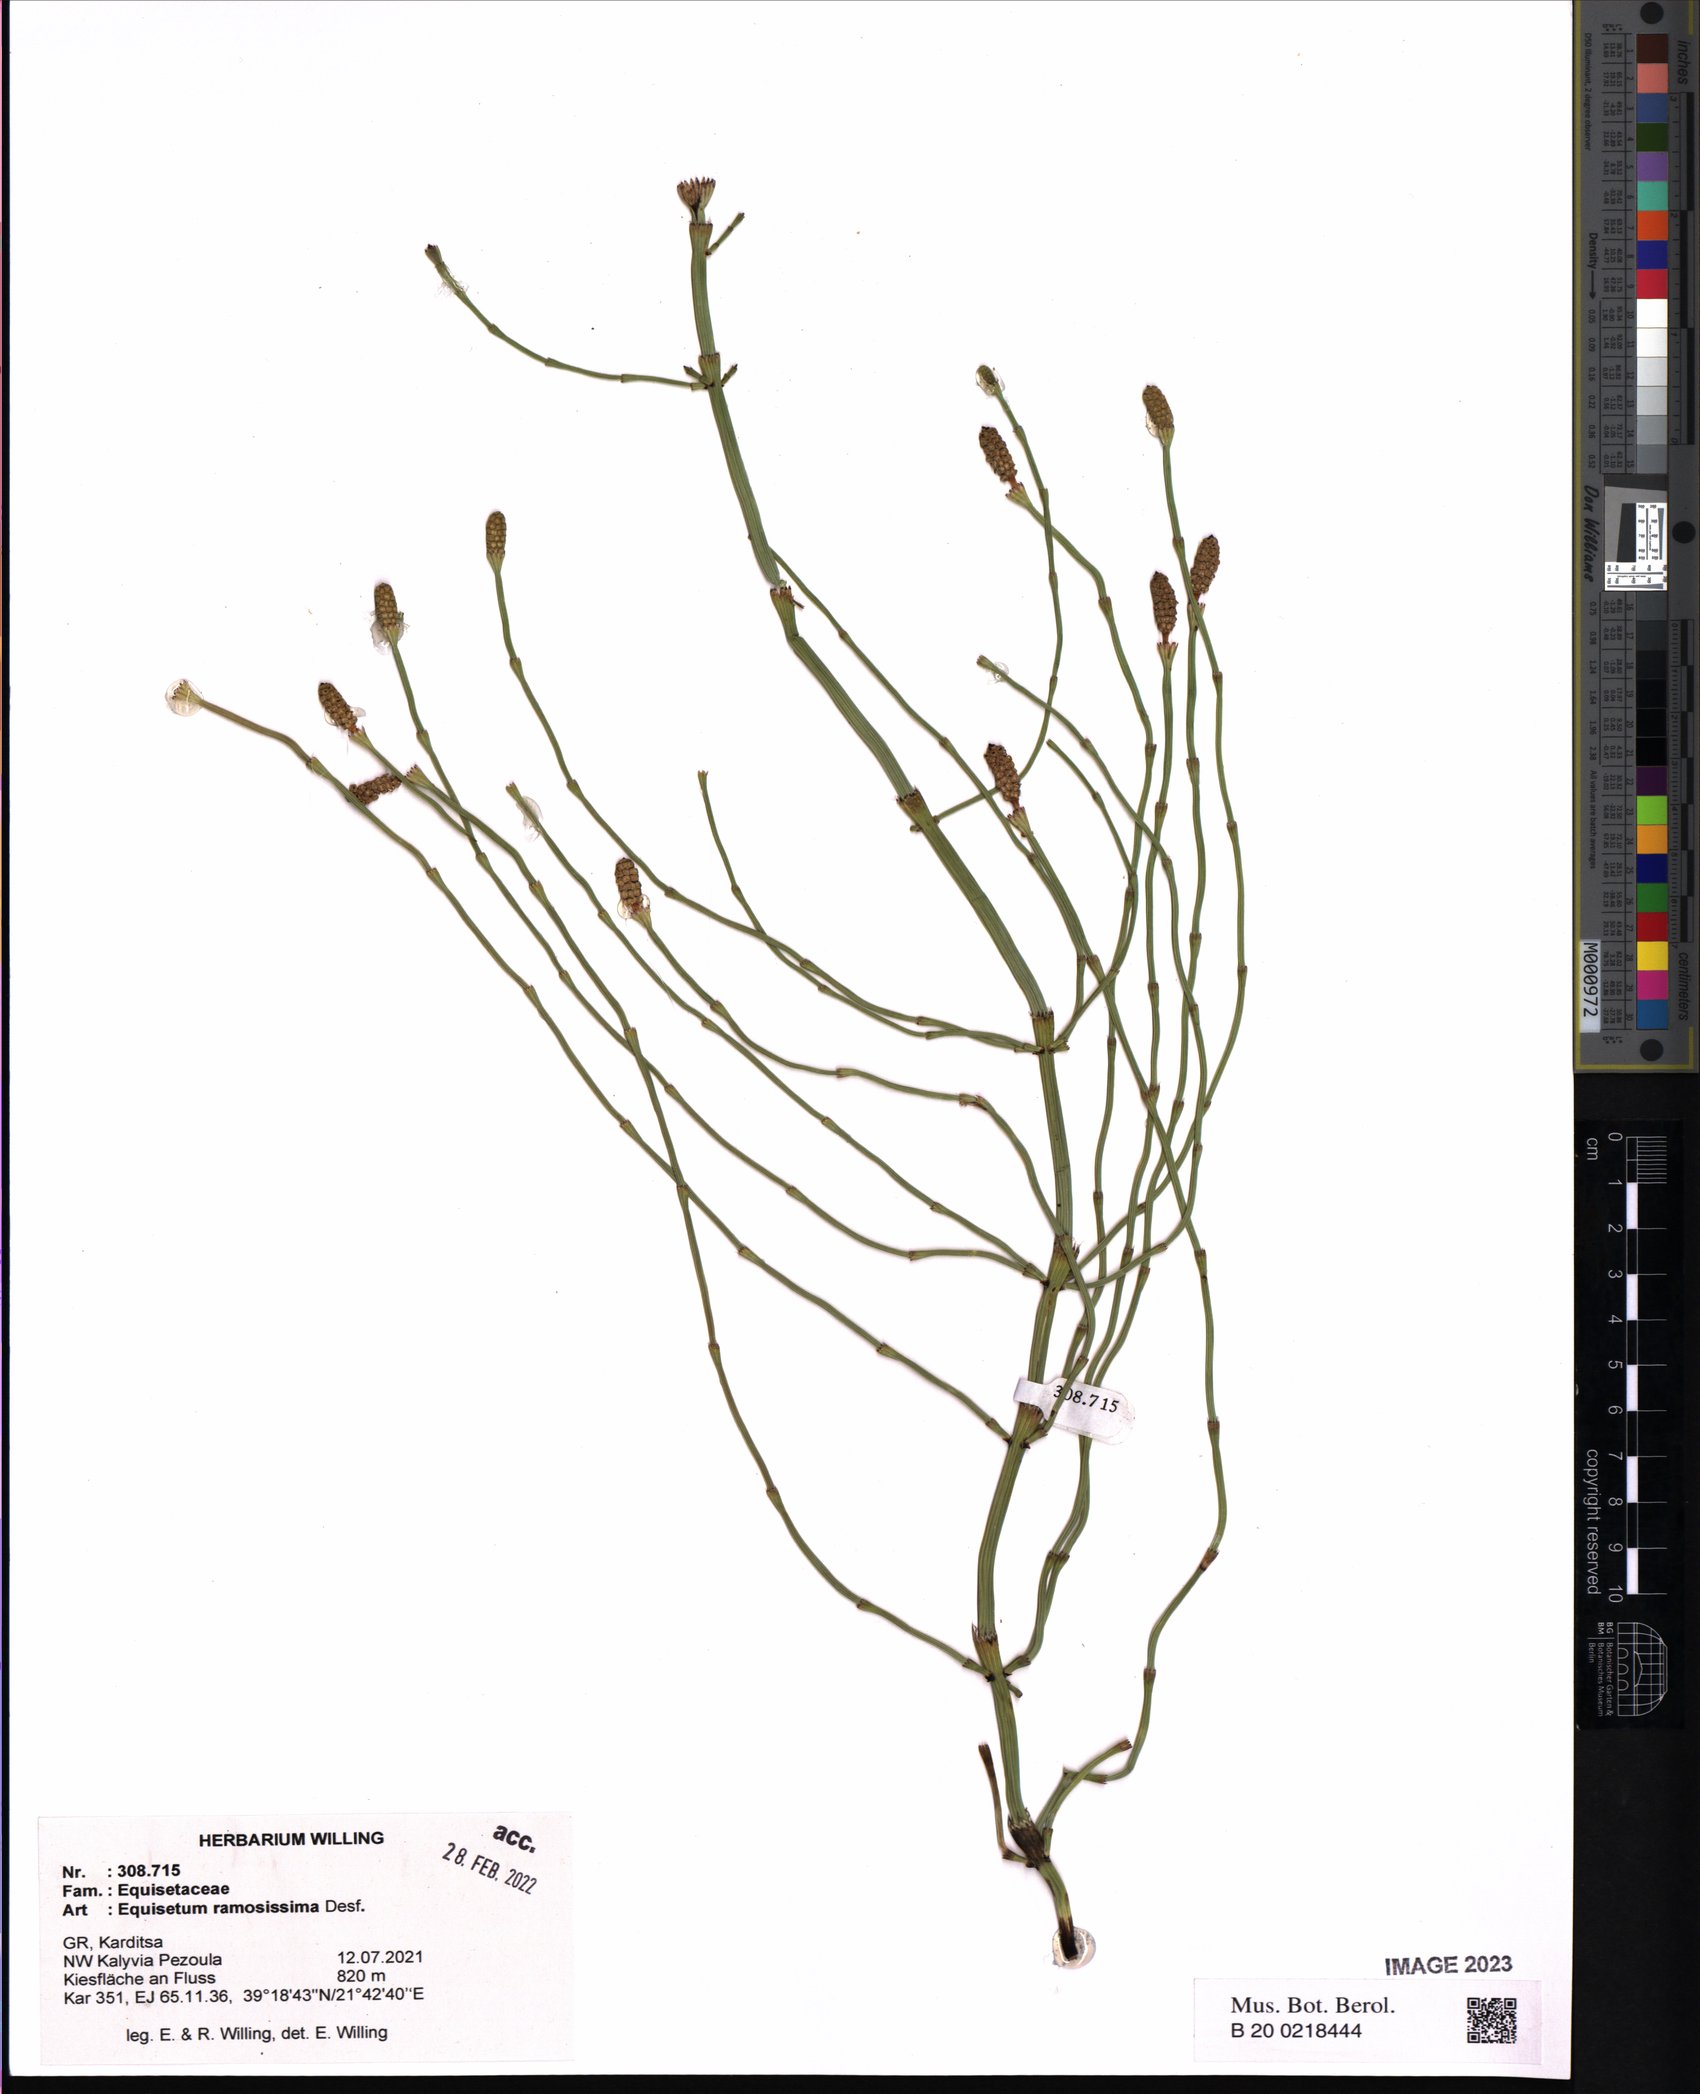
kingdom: Plantae
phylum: Tracheophyta
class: Polypodiopsida
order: Equisetales
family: Equisetaceae
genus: Equisetum
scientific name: Equisetum ramosissimum
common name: Branched horsetail
